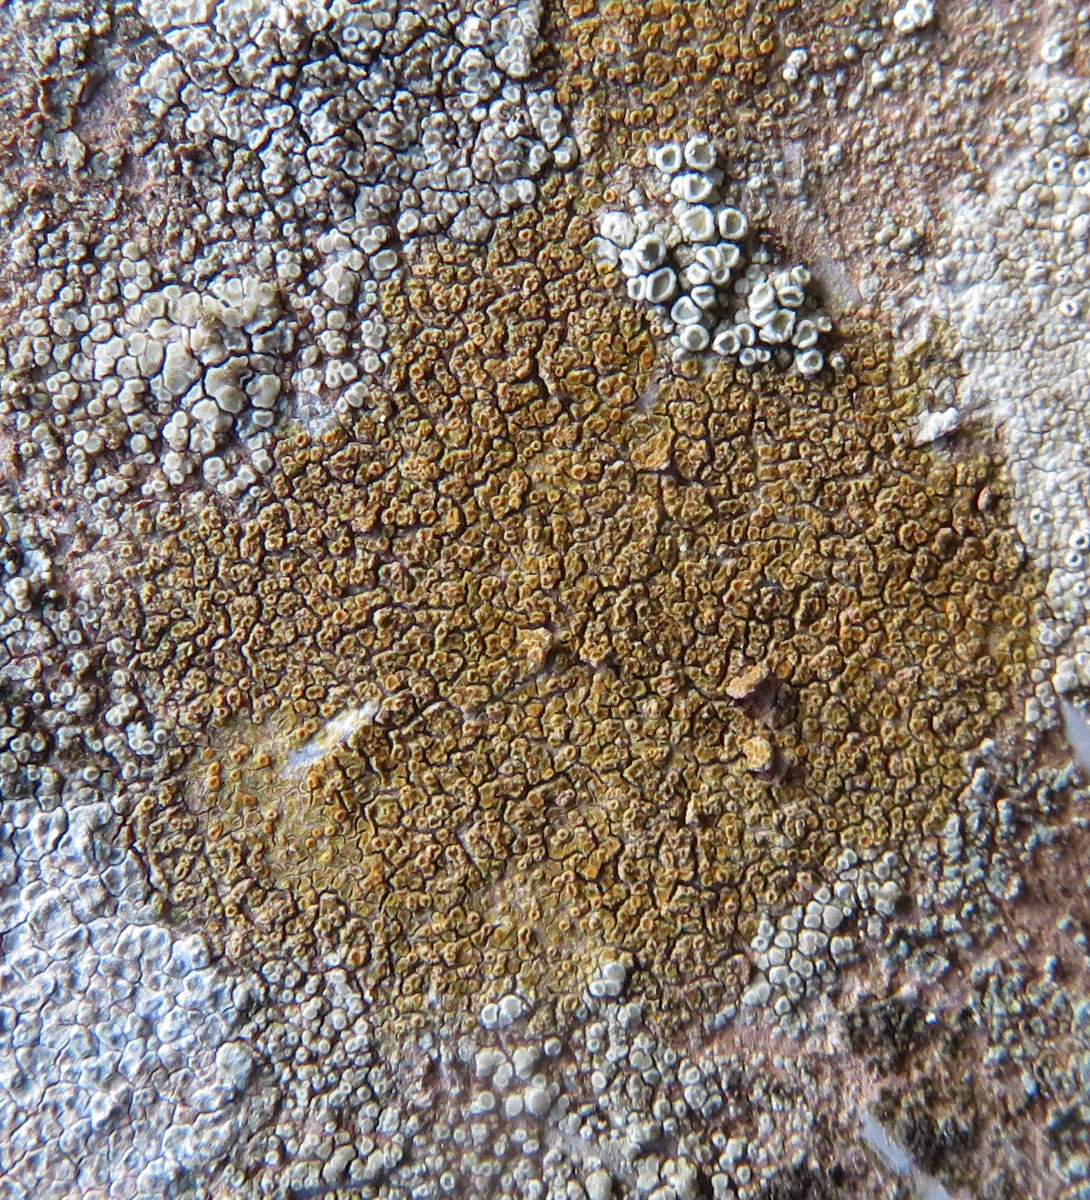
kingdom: Fungi
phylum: Ascomycota
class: Lecanoromycetes
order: Teloschistales
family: Teloschistaceae
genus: Caloplaca
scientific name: Caloplaca
